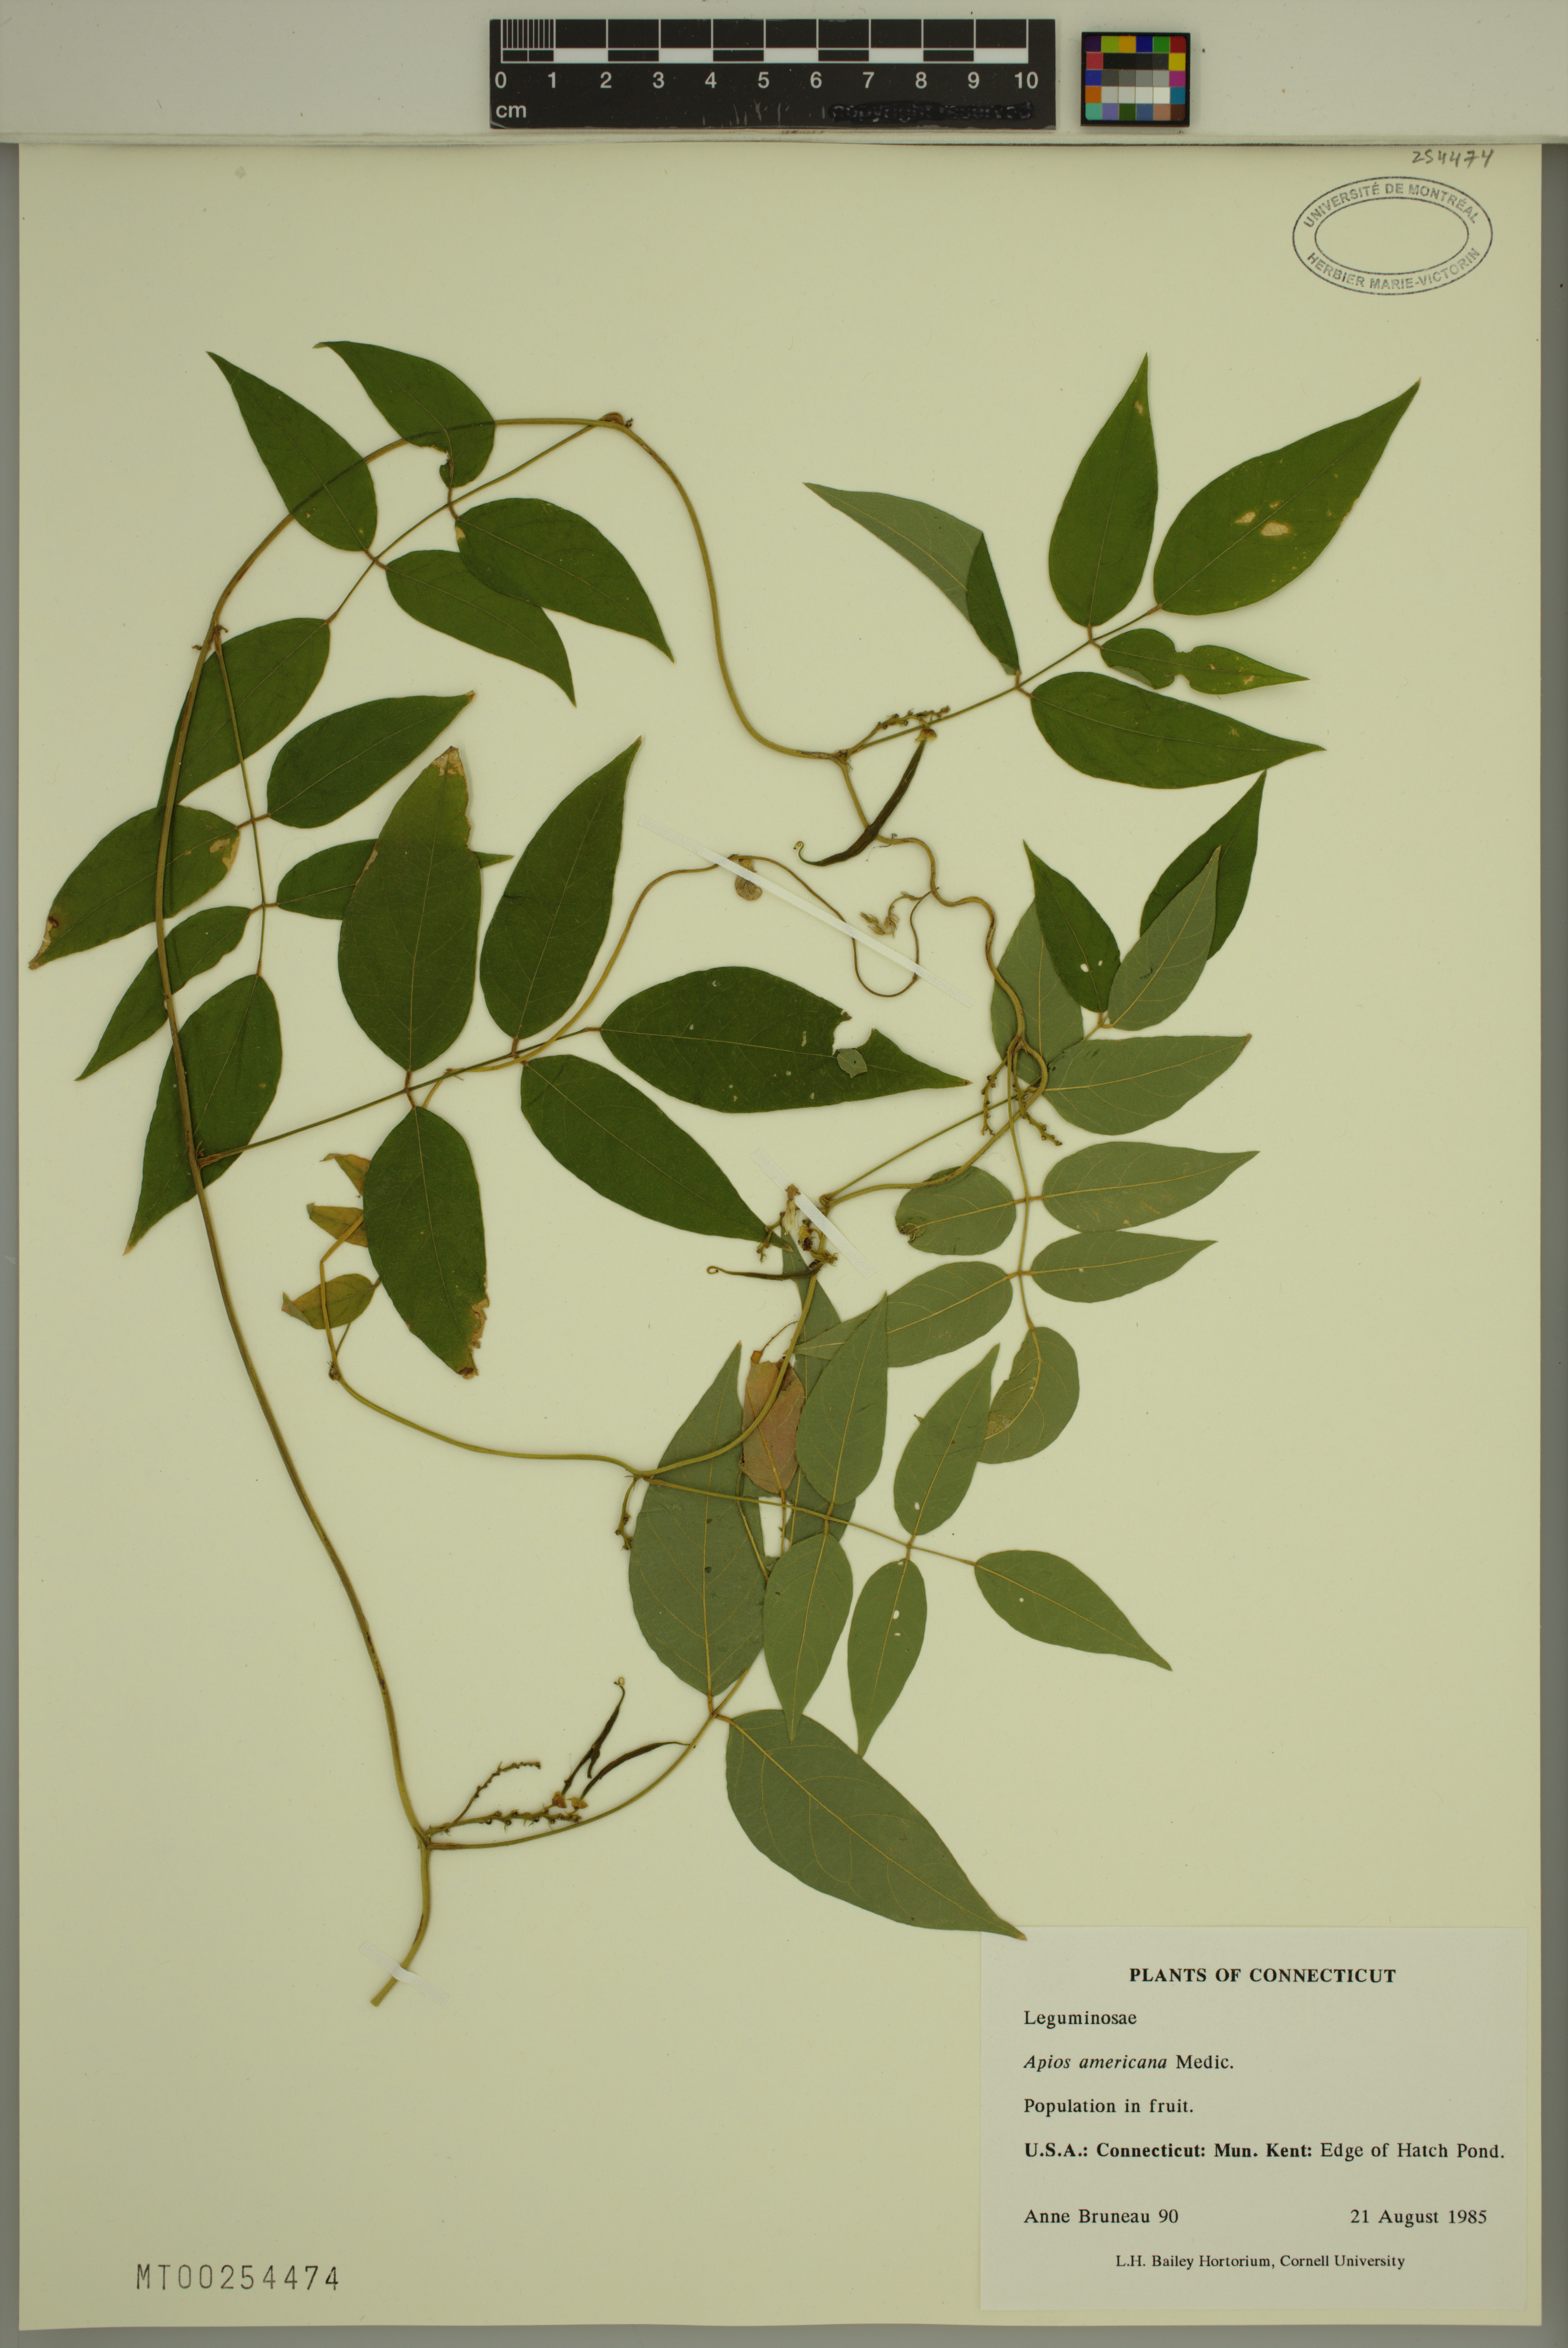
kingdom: Plantae
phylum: Tracheophyta
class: Magnoliopsida
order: Fabales
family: Fabaceae
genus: Apios
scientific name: Apios americana
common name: American potato-bean
